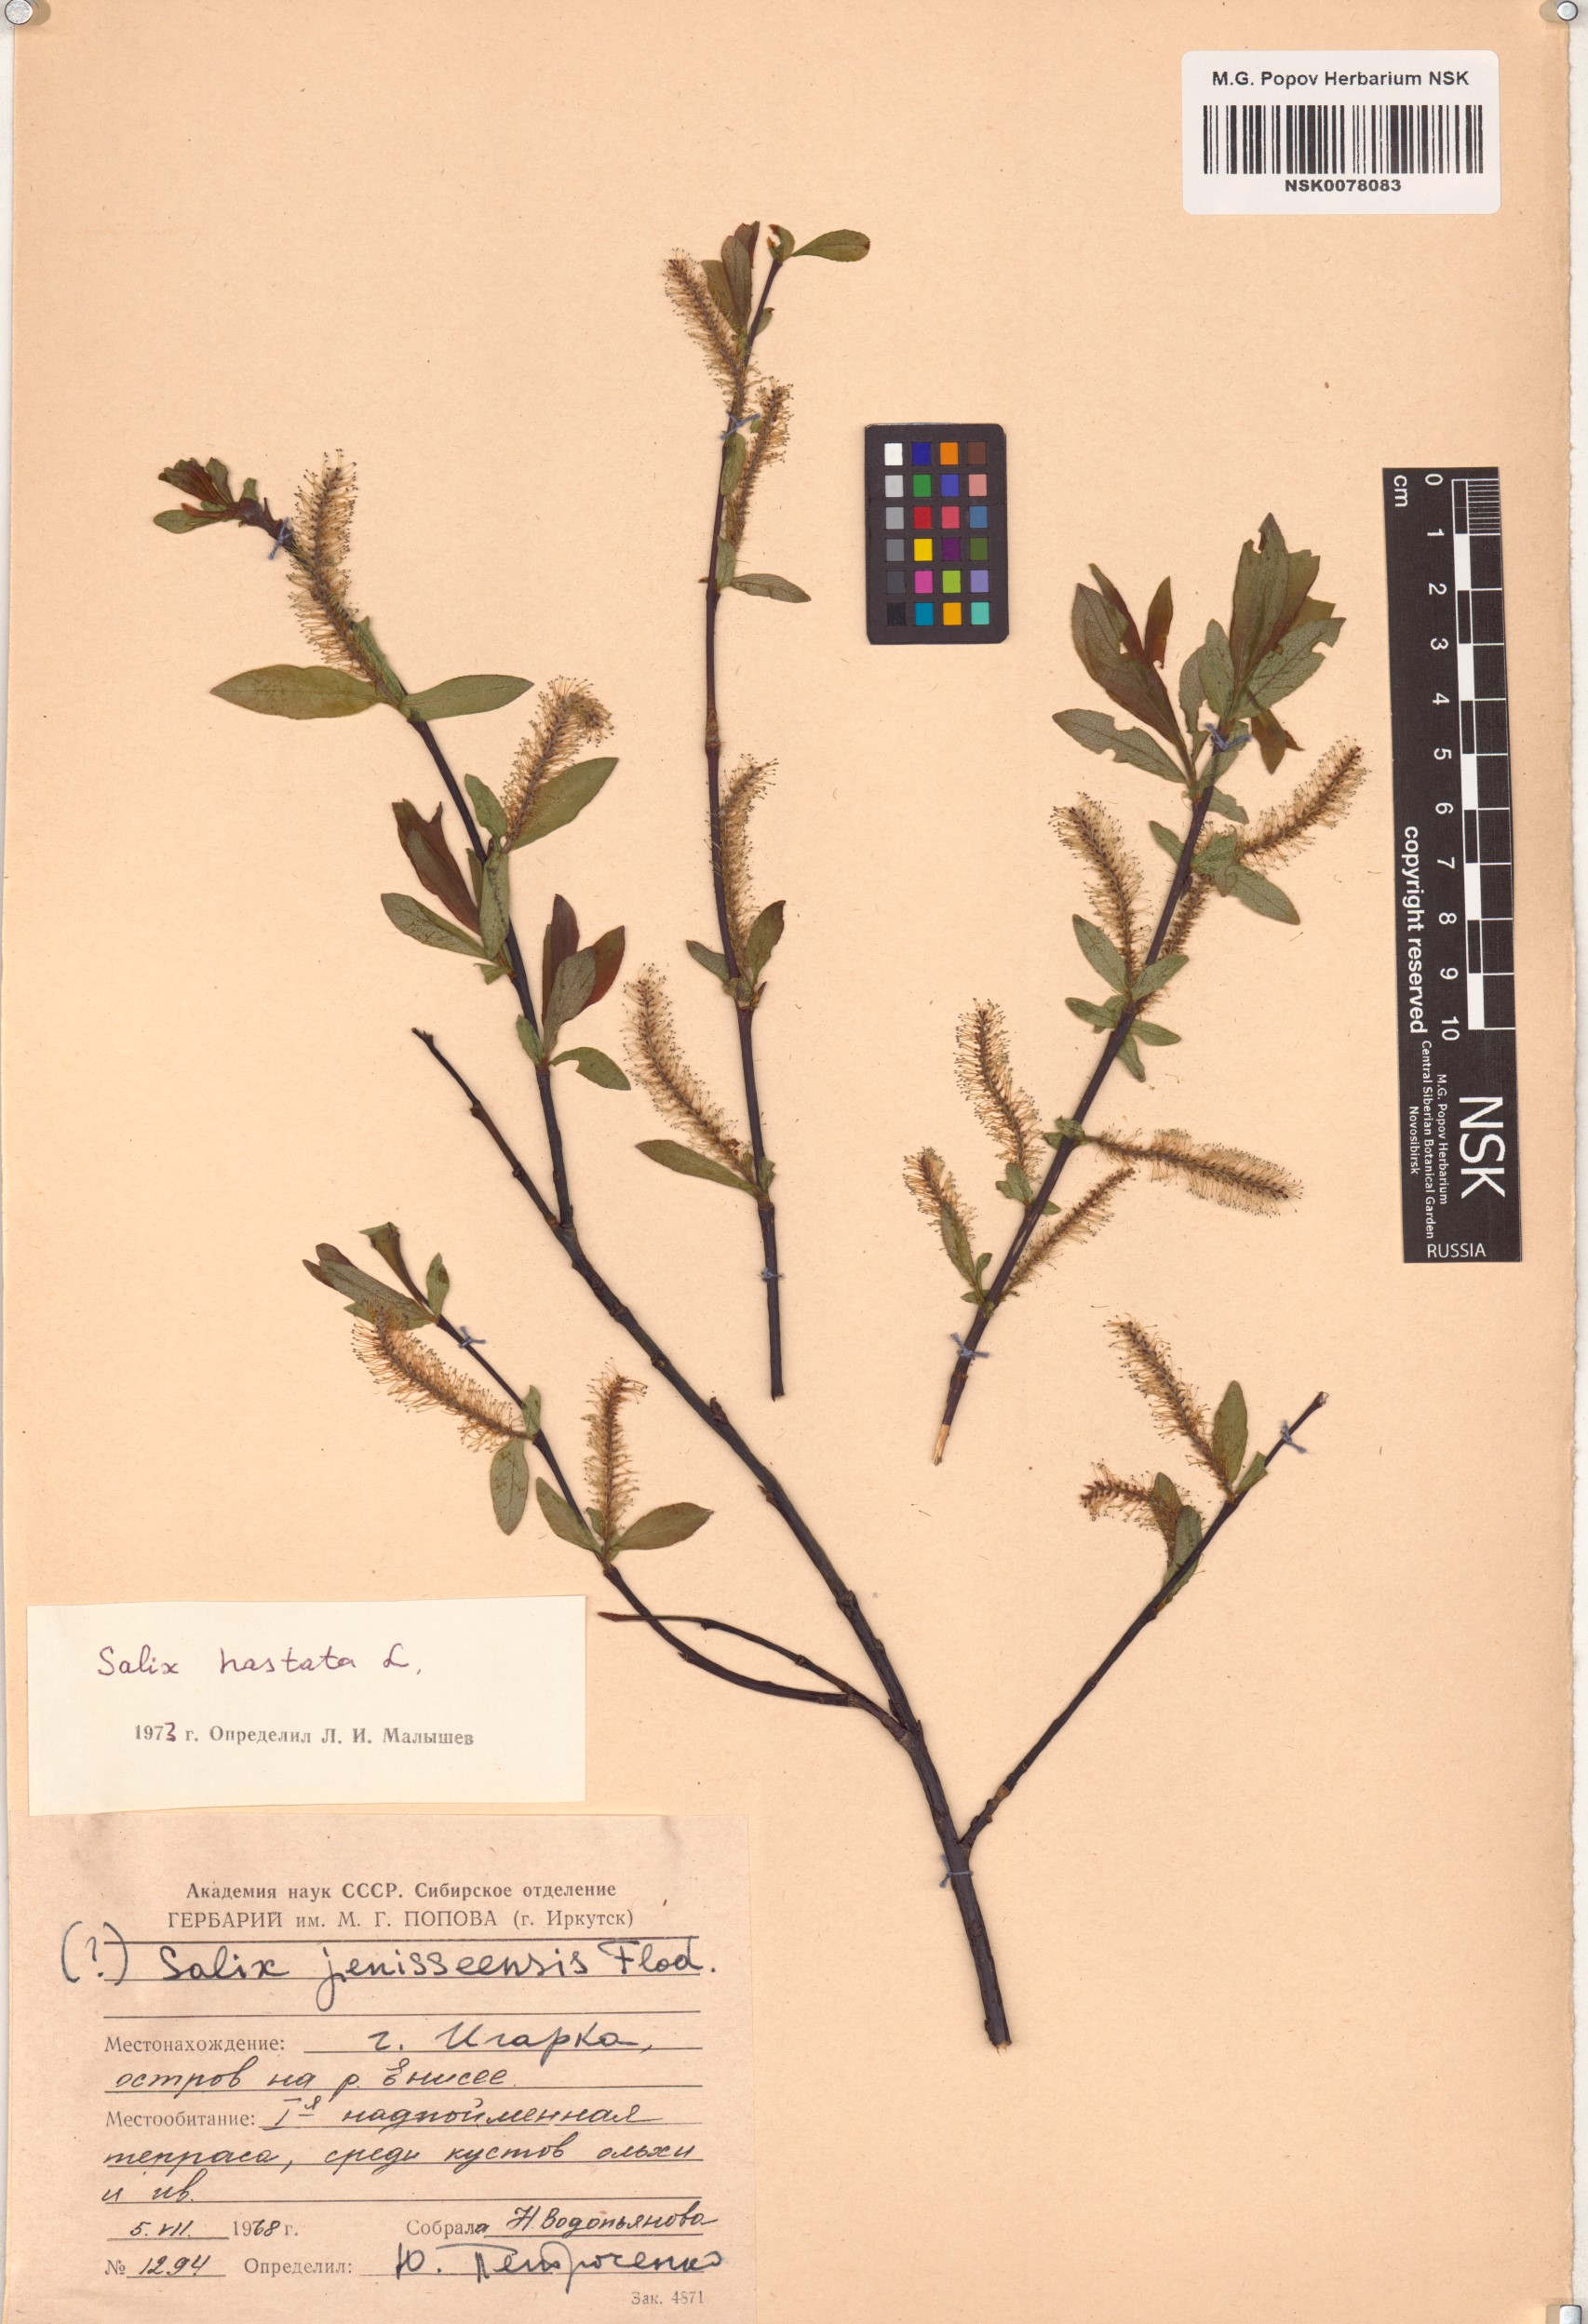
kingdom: Plantae
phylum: Tracheophyta
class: Magnoliopsida
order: Malpighiales
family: Salicaceae
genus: Salix
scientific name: Salix hastata
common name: Halberd willow
